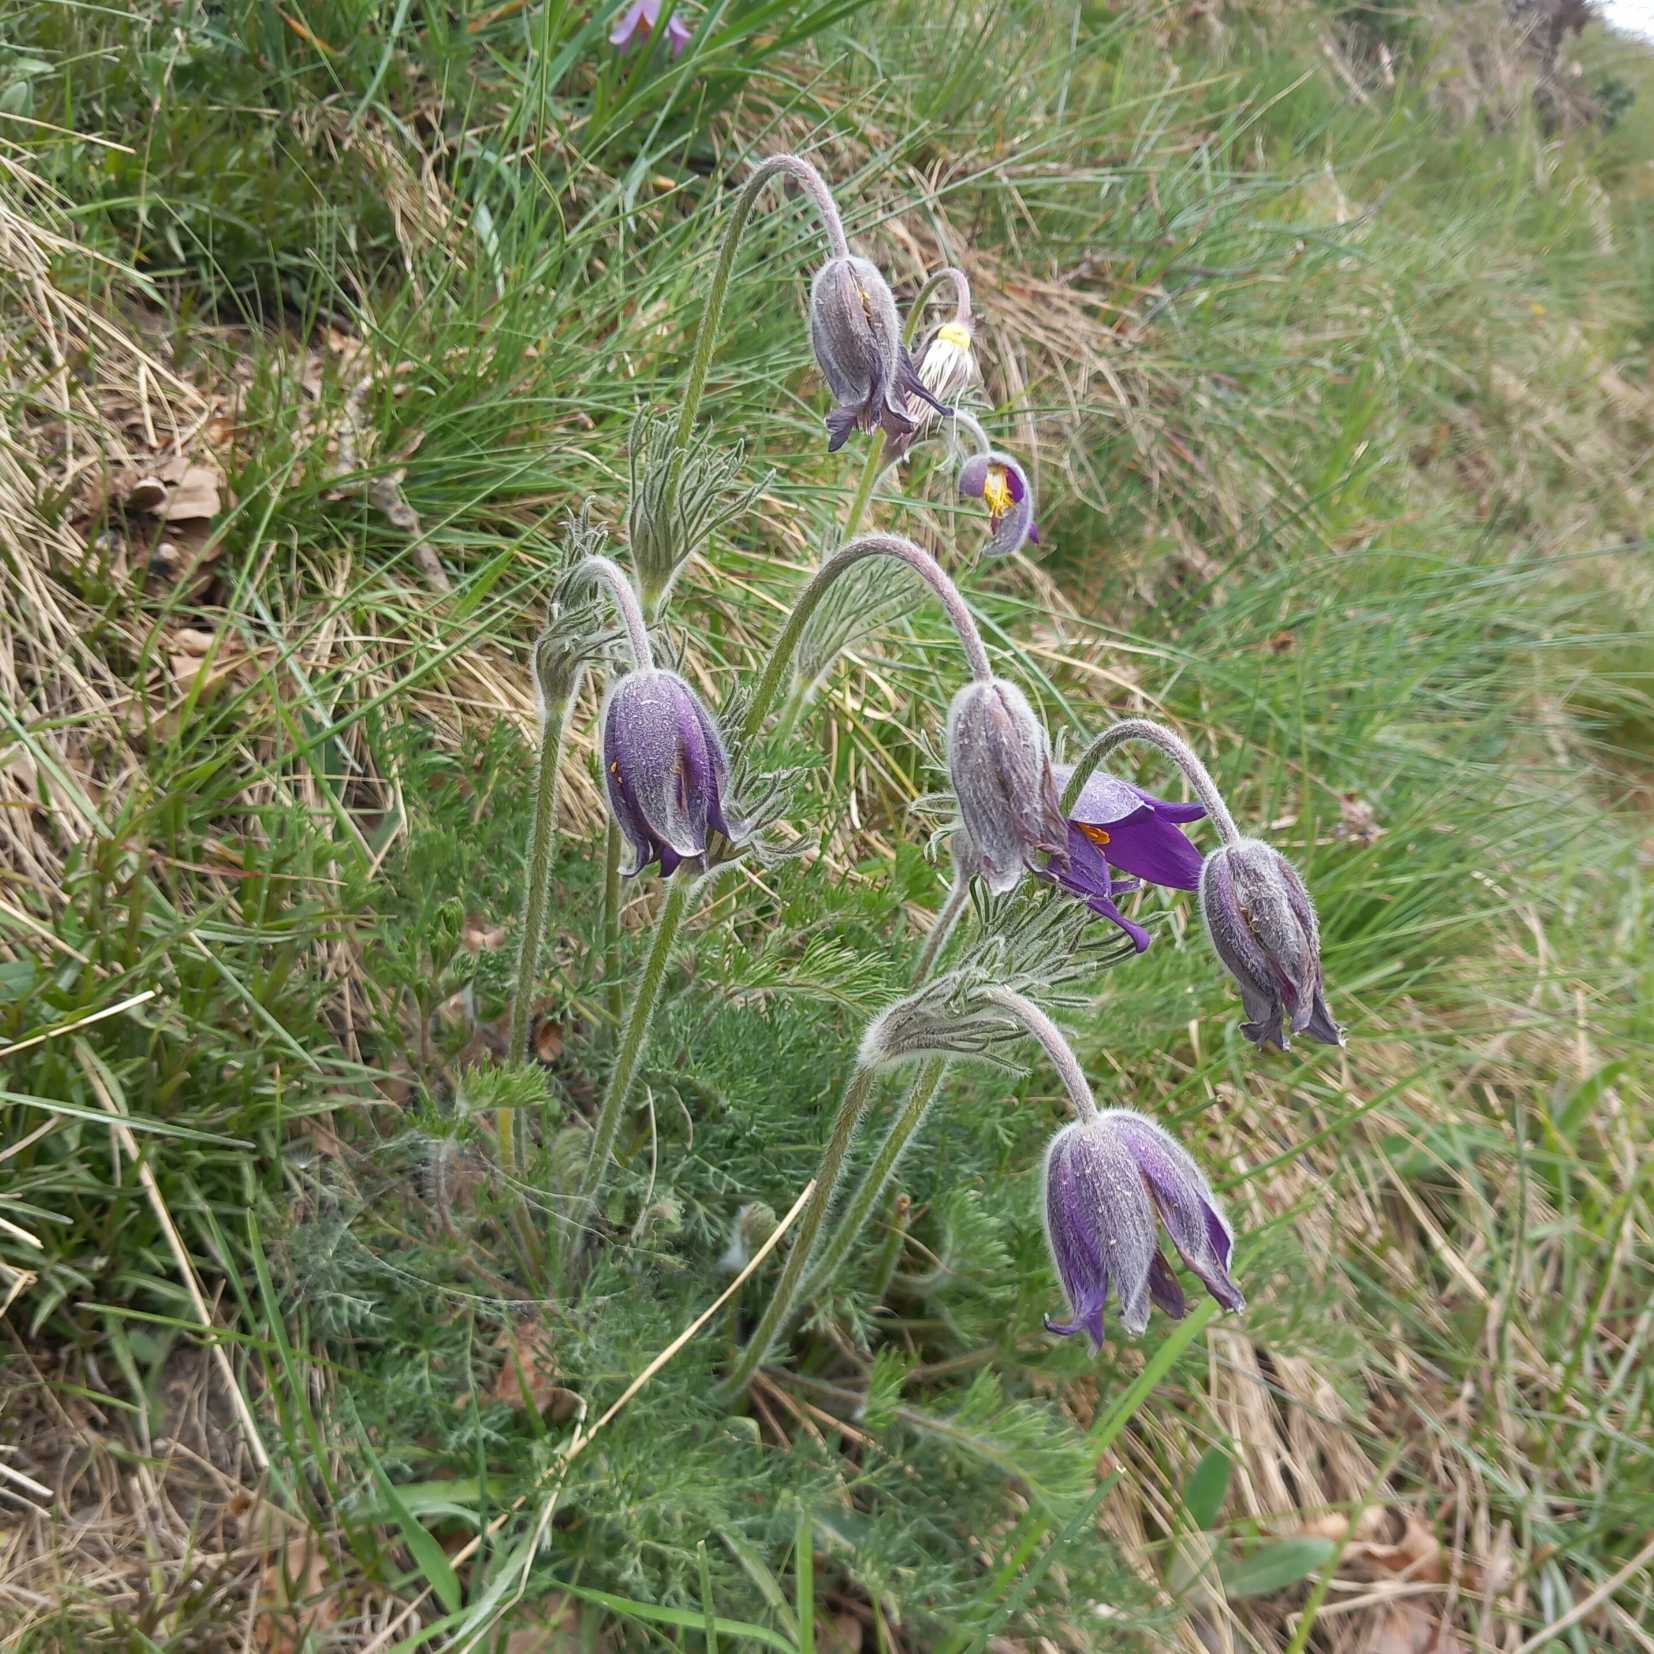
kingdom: Plantae
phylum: Tracheophyta
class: Magnoliopsida
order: Ranunculales
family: Ranunculaceae
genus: Pulsatilla
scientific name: Pulsatilla vulgaris
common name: Opret kobjælde
